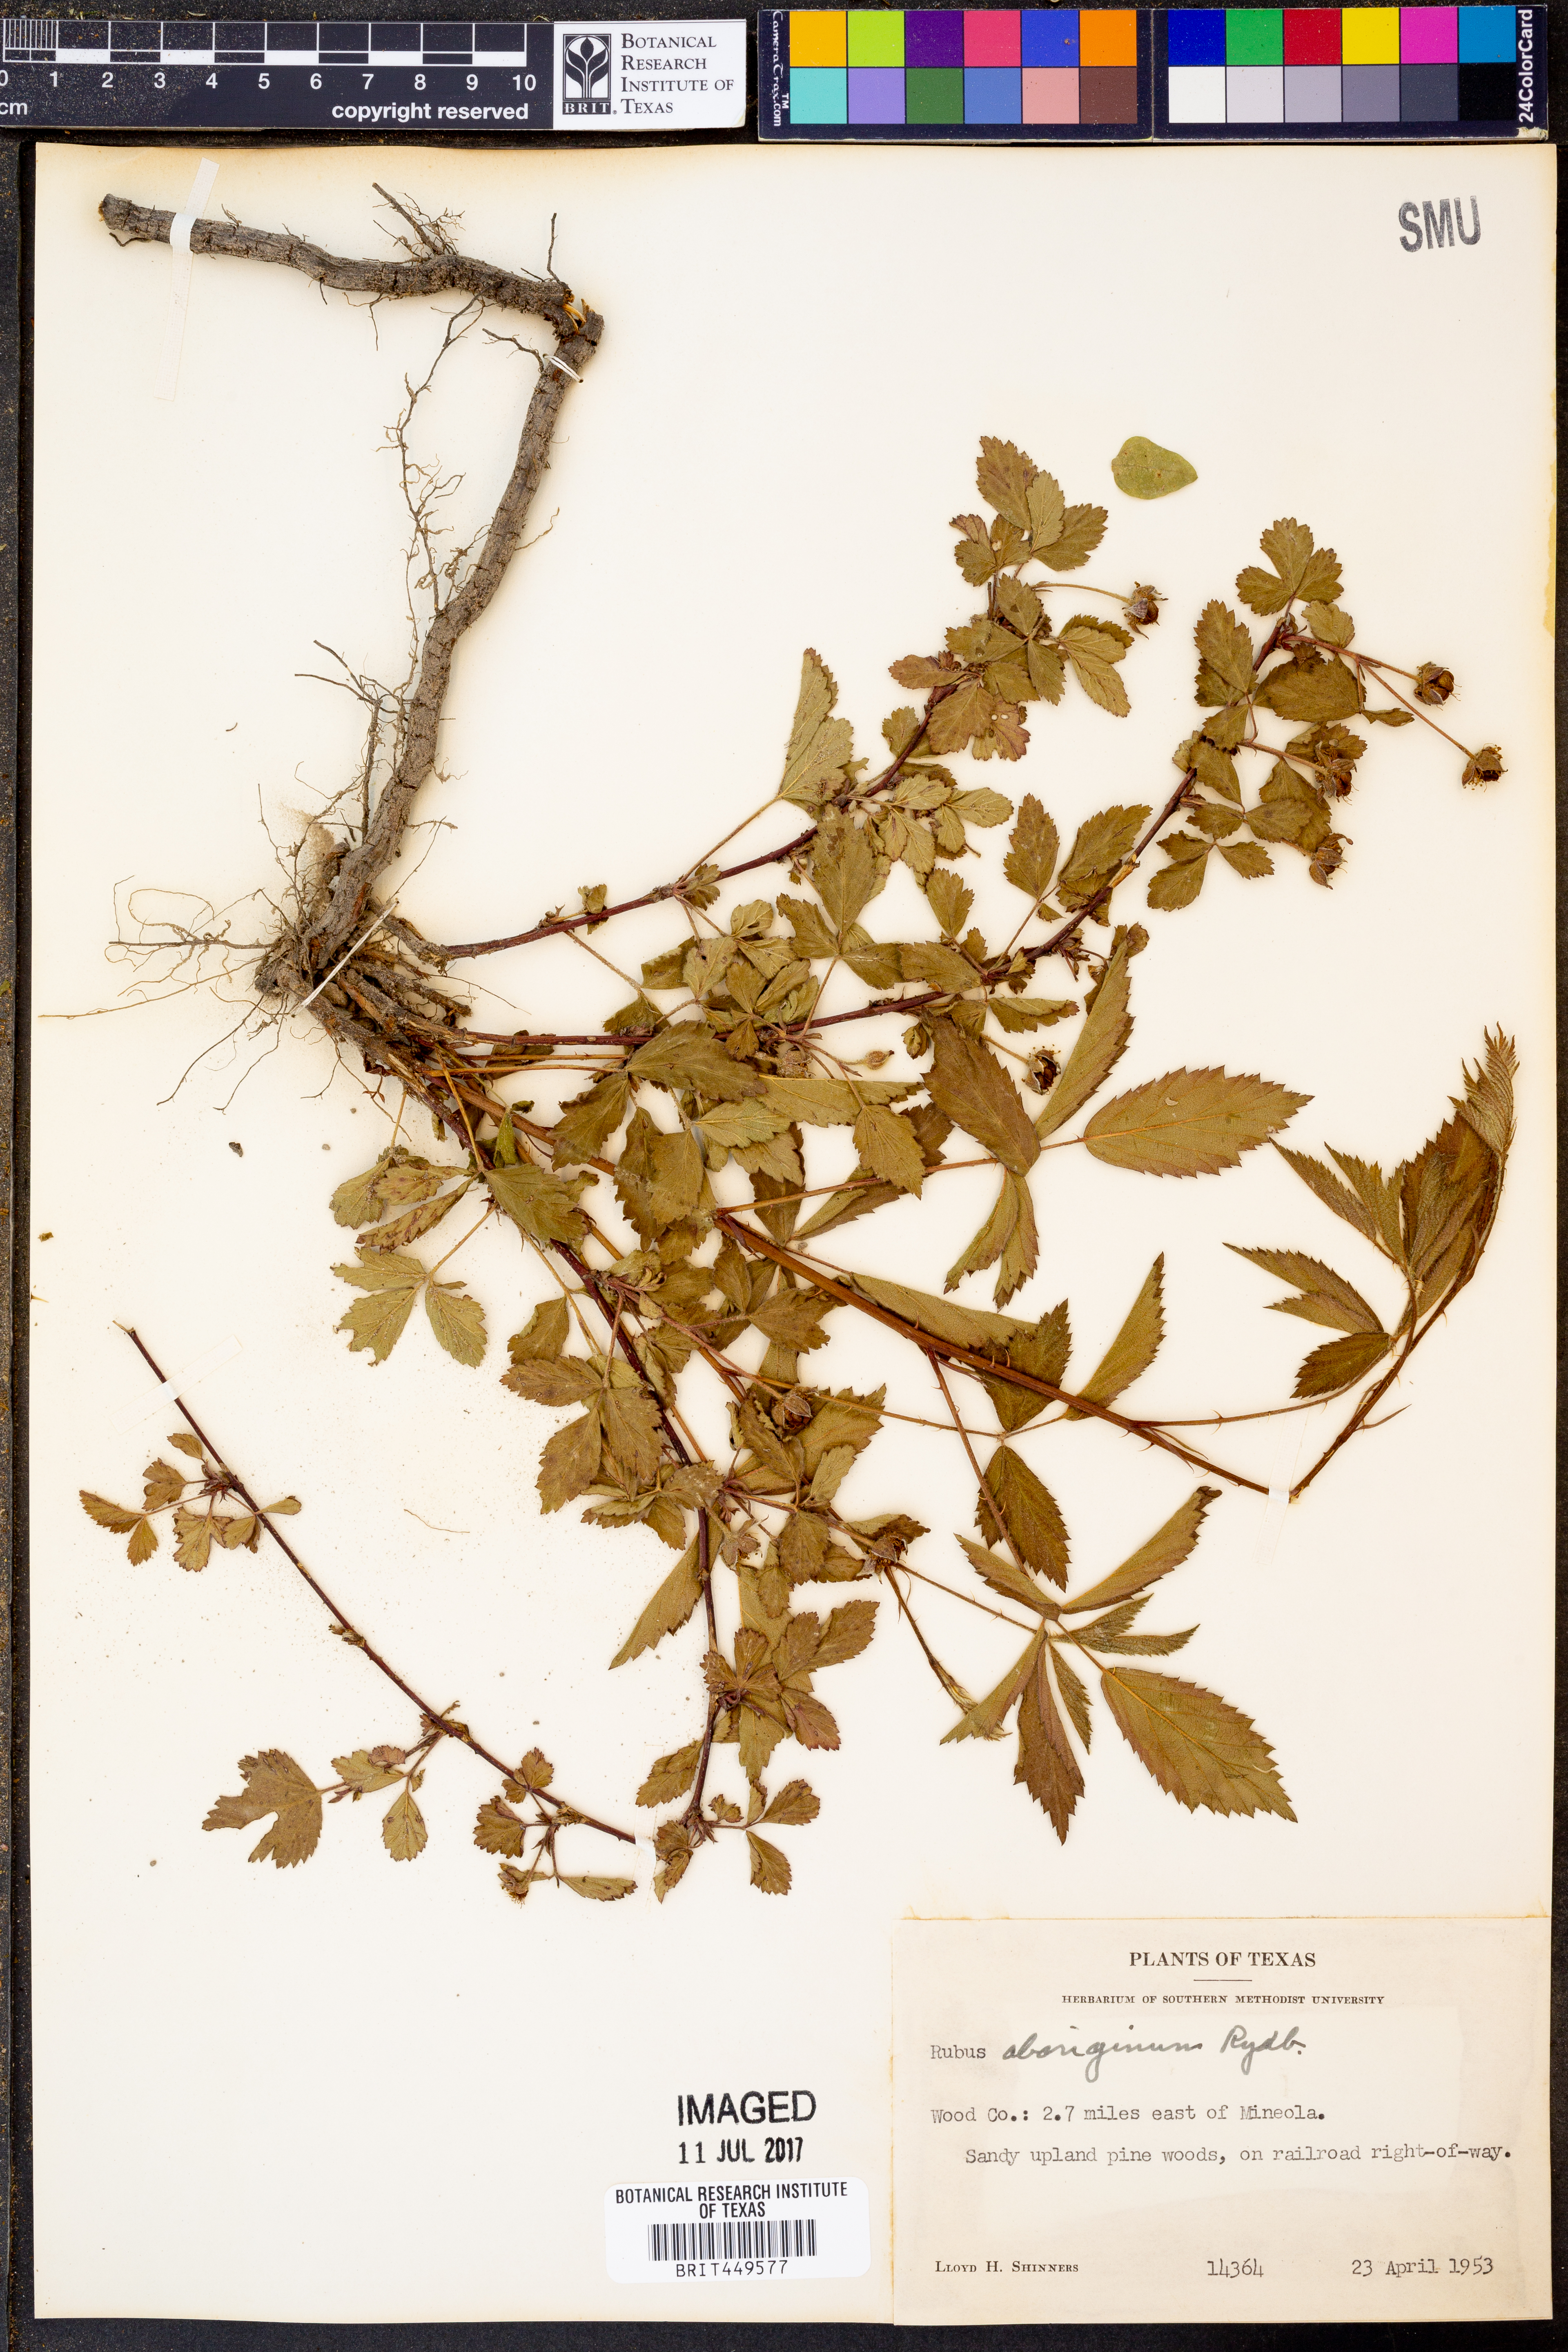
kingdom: Plantae
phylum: Tracheophyta
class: Magnoliopsida
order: Rosales
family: Rosaceae
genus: Rubus
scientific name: Rubus aboriginum
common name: Mayes dewberry
